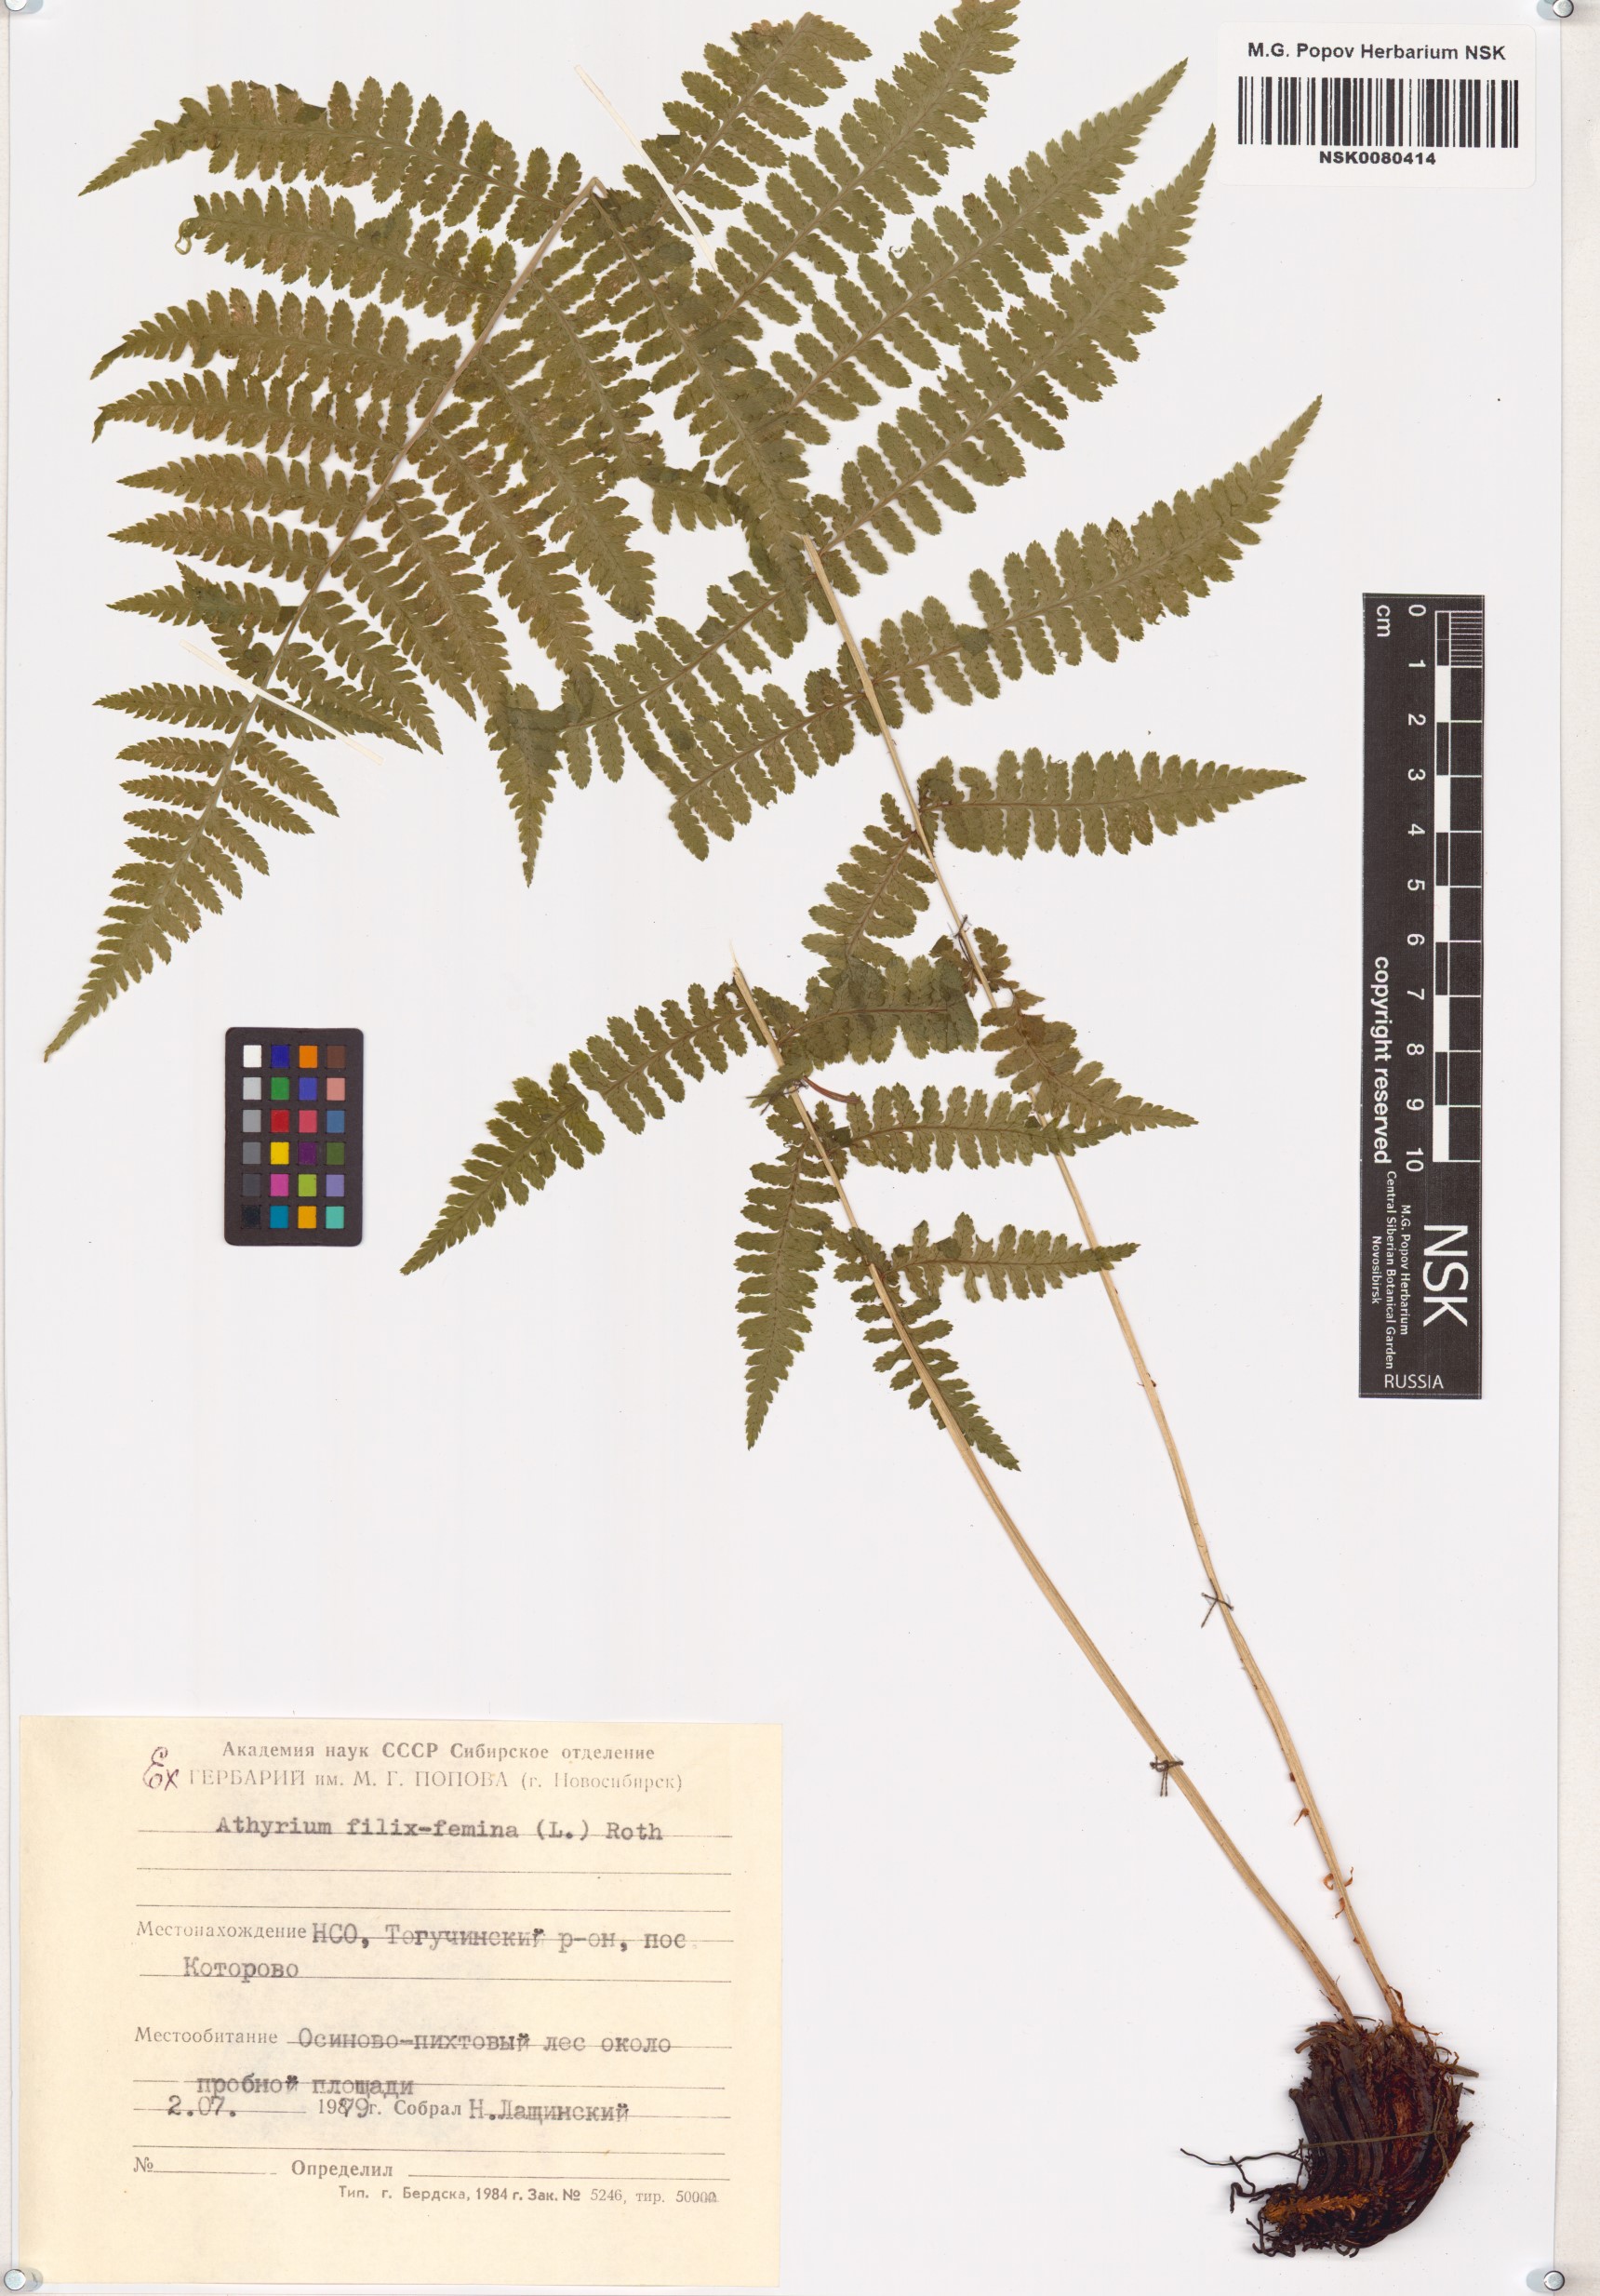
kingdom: Plantae
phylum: Tracheophyta
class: Polypodiopsida
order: Polypodiales
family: Athyriaceae
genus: Athyrium
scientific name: Athyrium filix-femina
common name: Lady fern
